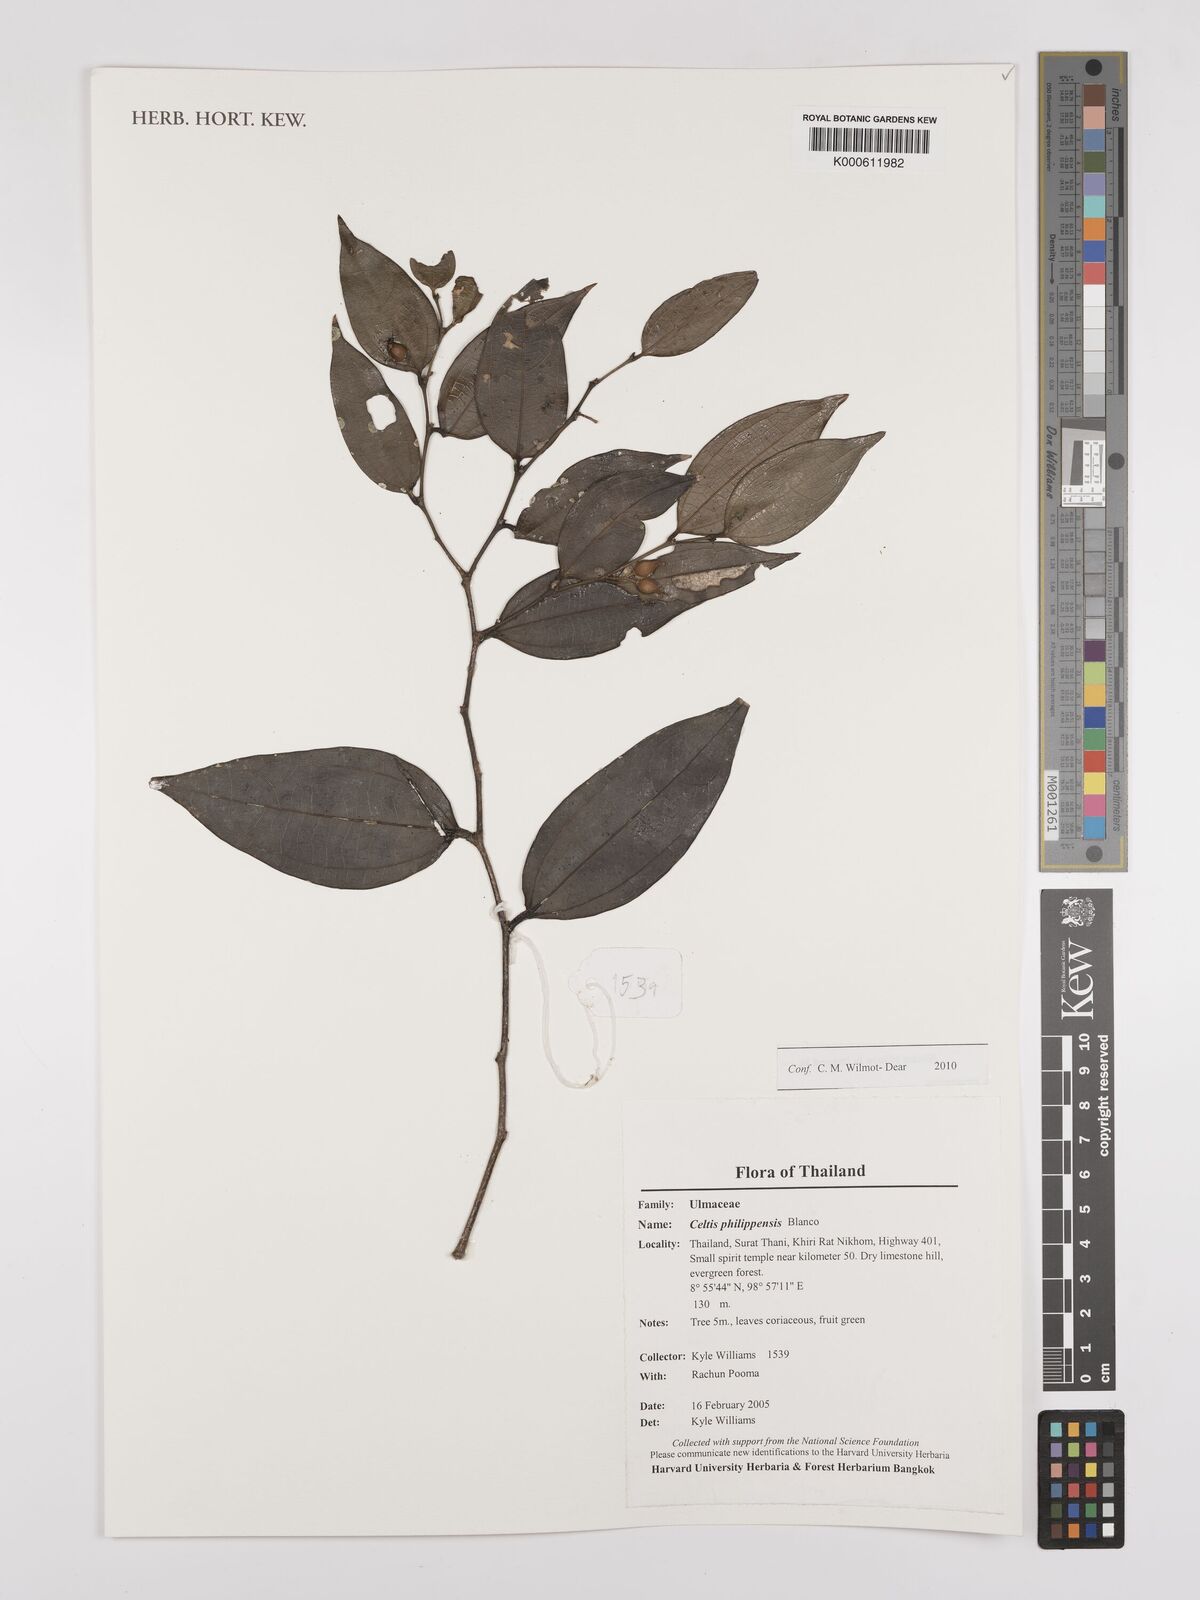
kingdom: Plantae
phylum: Tracheophyta
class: Magnoliopsida
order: Rosales
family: Cannabaceae
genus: Celtis
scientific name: Celtis philippensis
